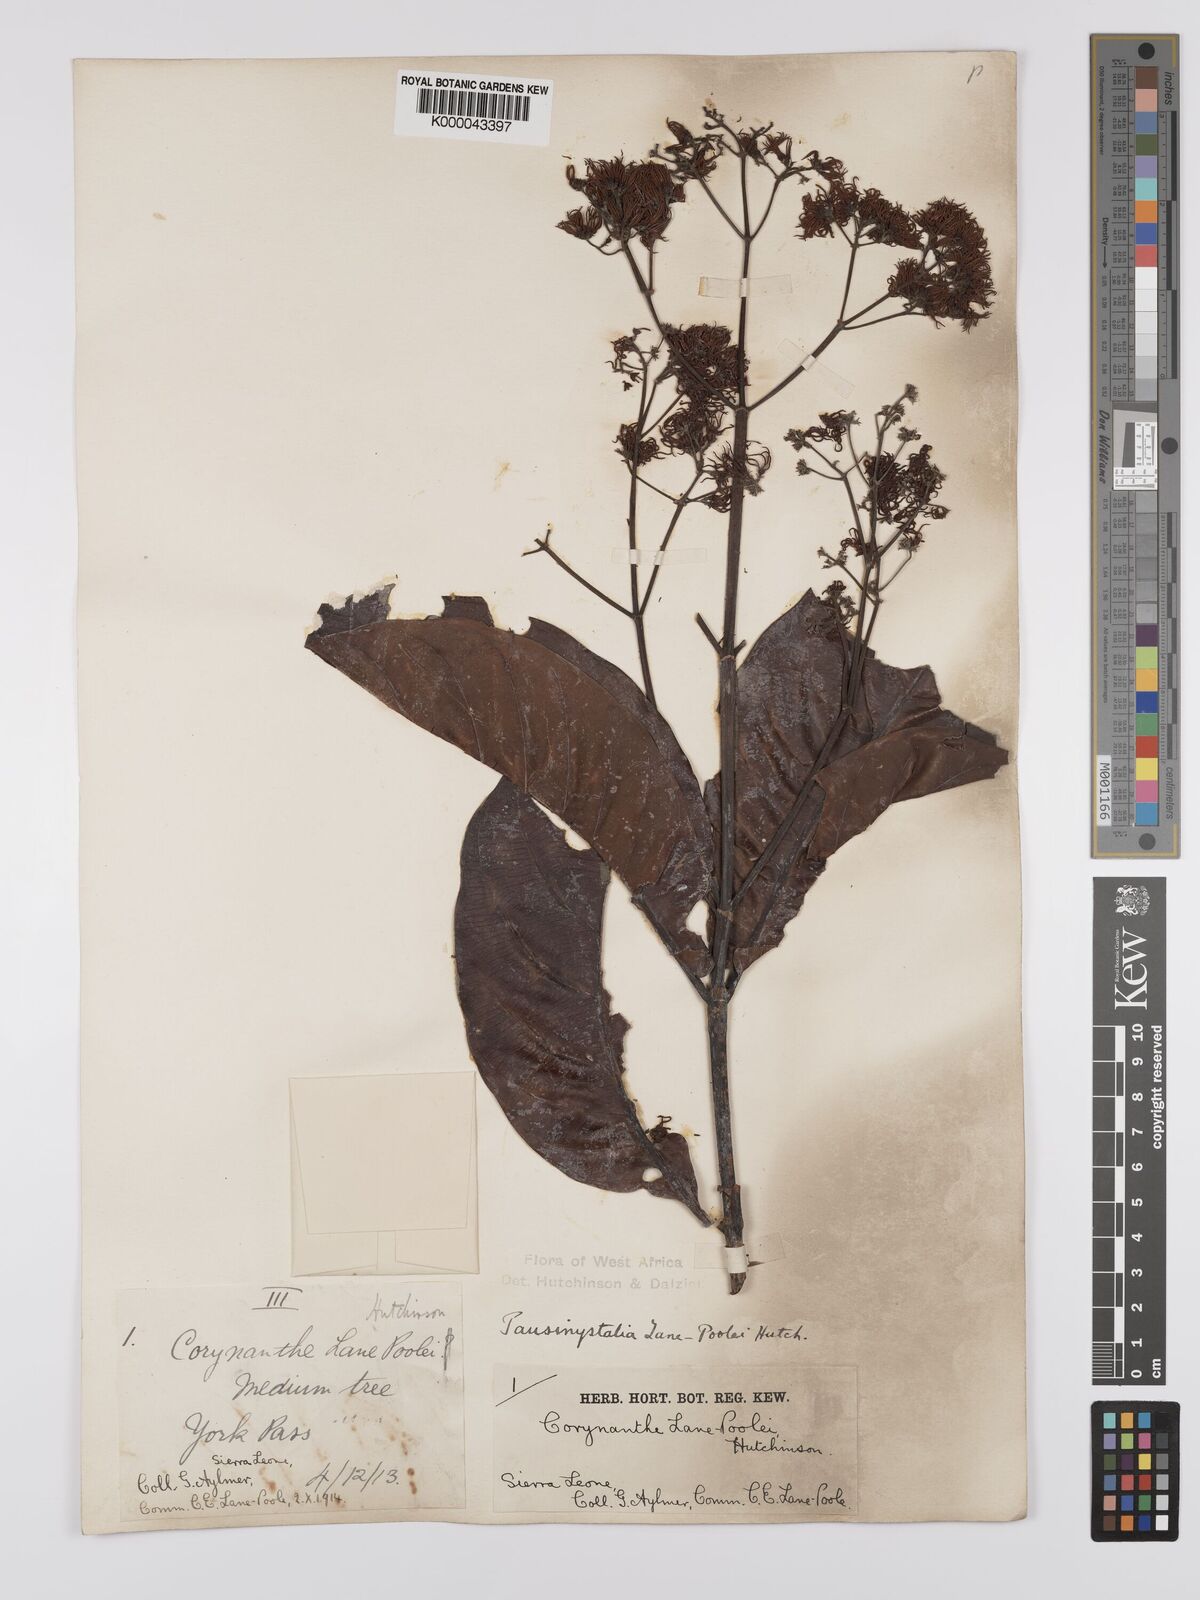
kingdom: Plantae
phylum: Tracheophyta
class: Magnoliopsida
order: Gentianales
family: Rubiaceae
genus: Corynanthe
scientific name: Corynanthe lane-poolei
